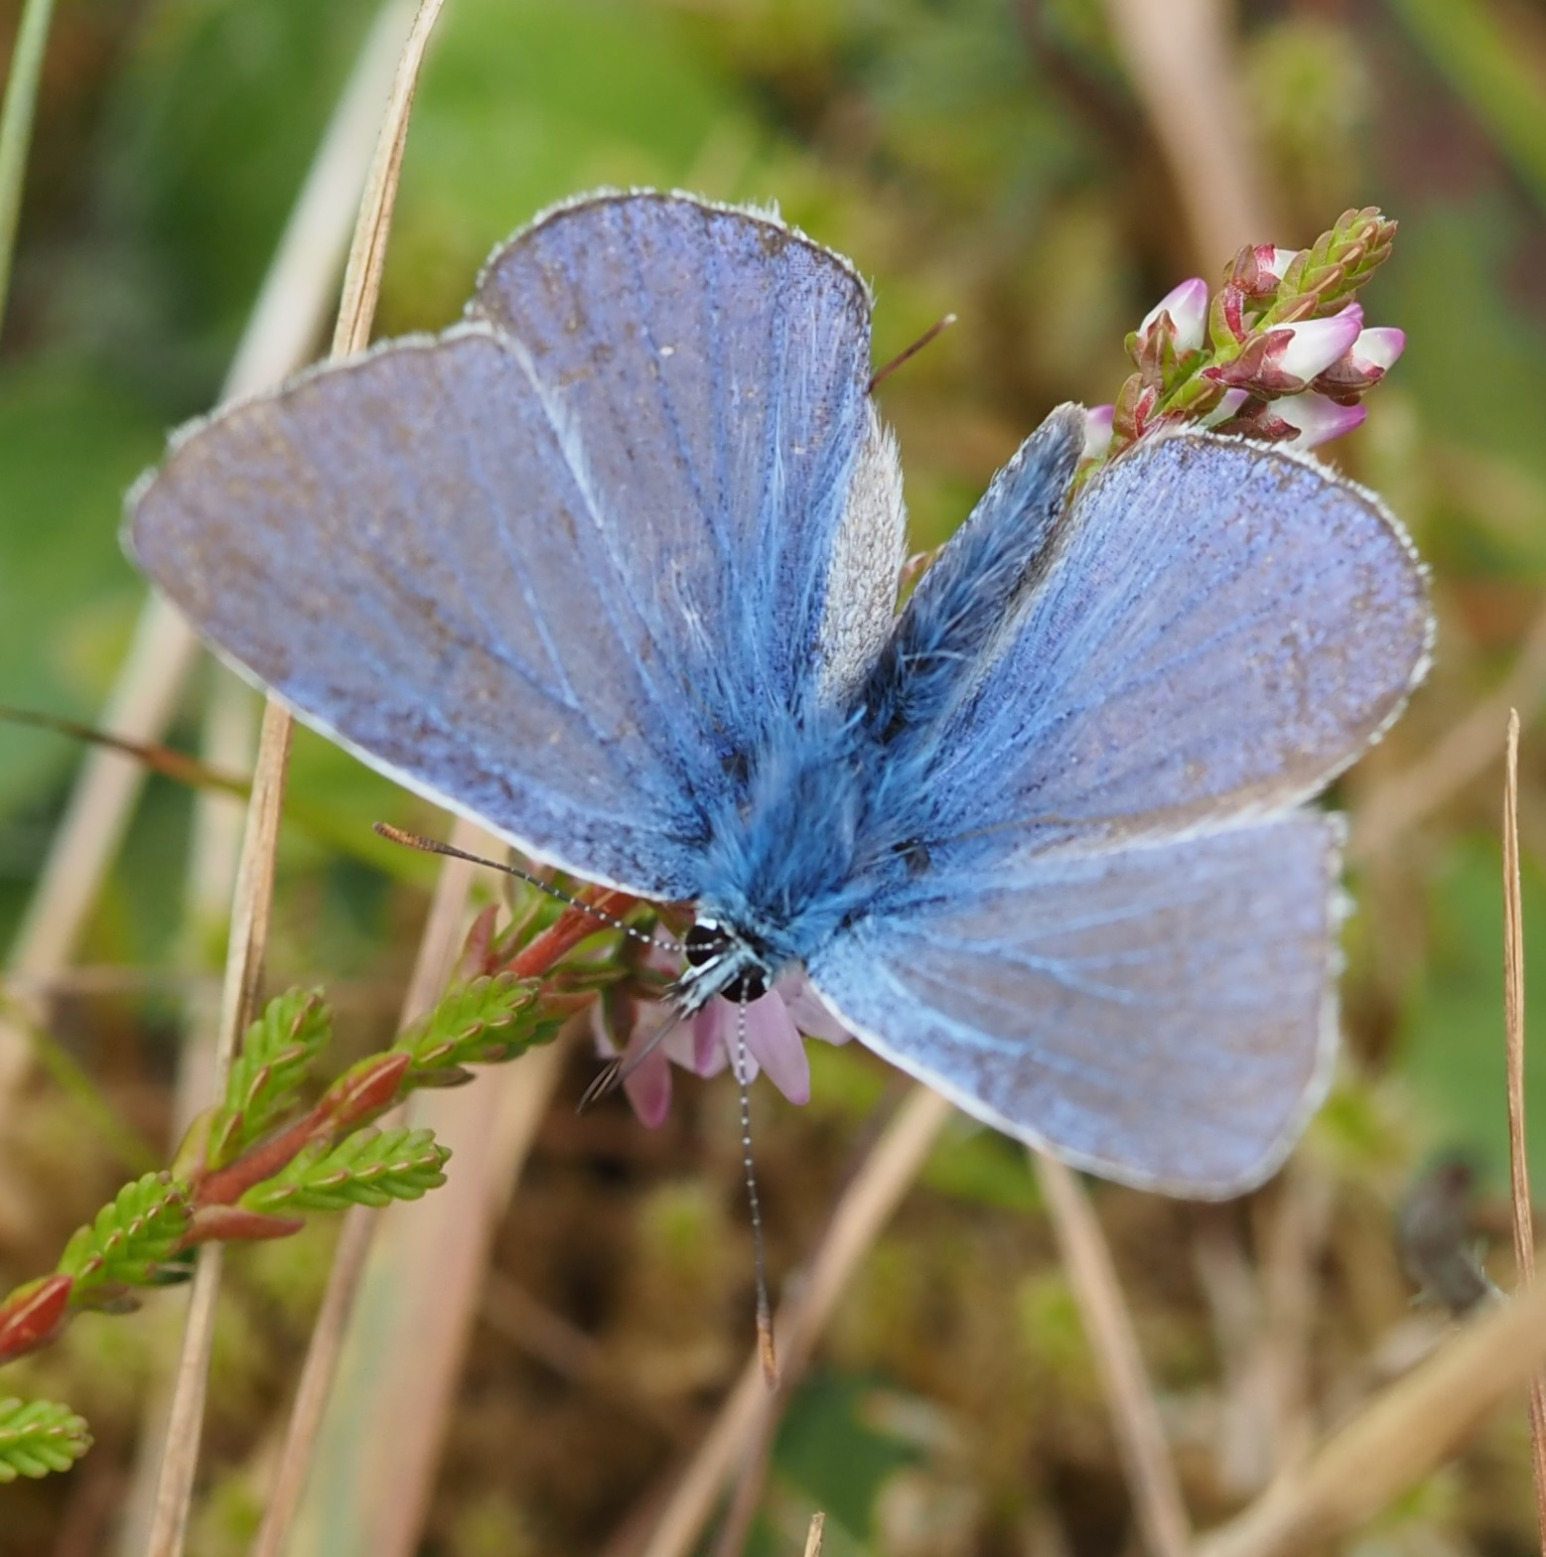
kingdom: Animalia
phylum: Arthropoda
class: Insecta
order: Lepidoptera
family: Lycaenidae
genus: Polyommatus
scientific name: Polyommatus icarus
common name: Almindelig blåfugl
